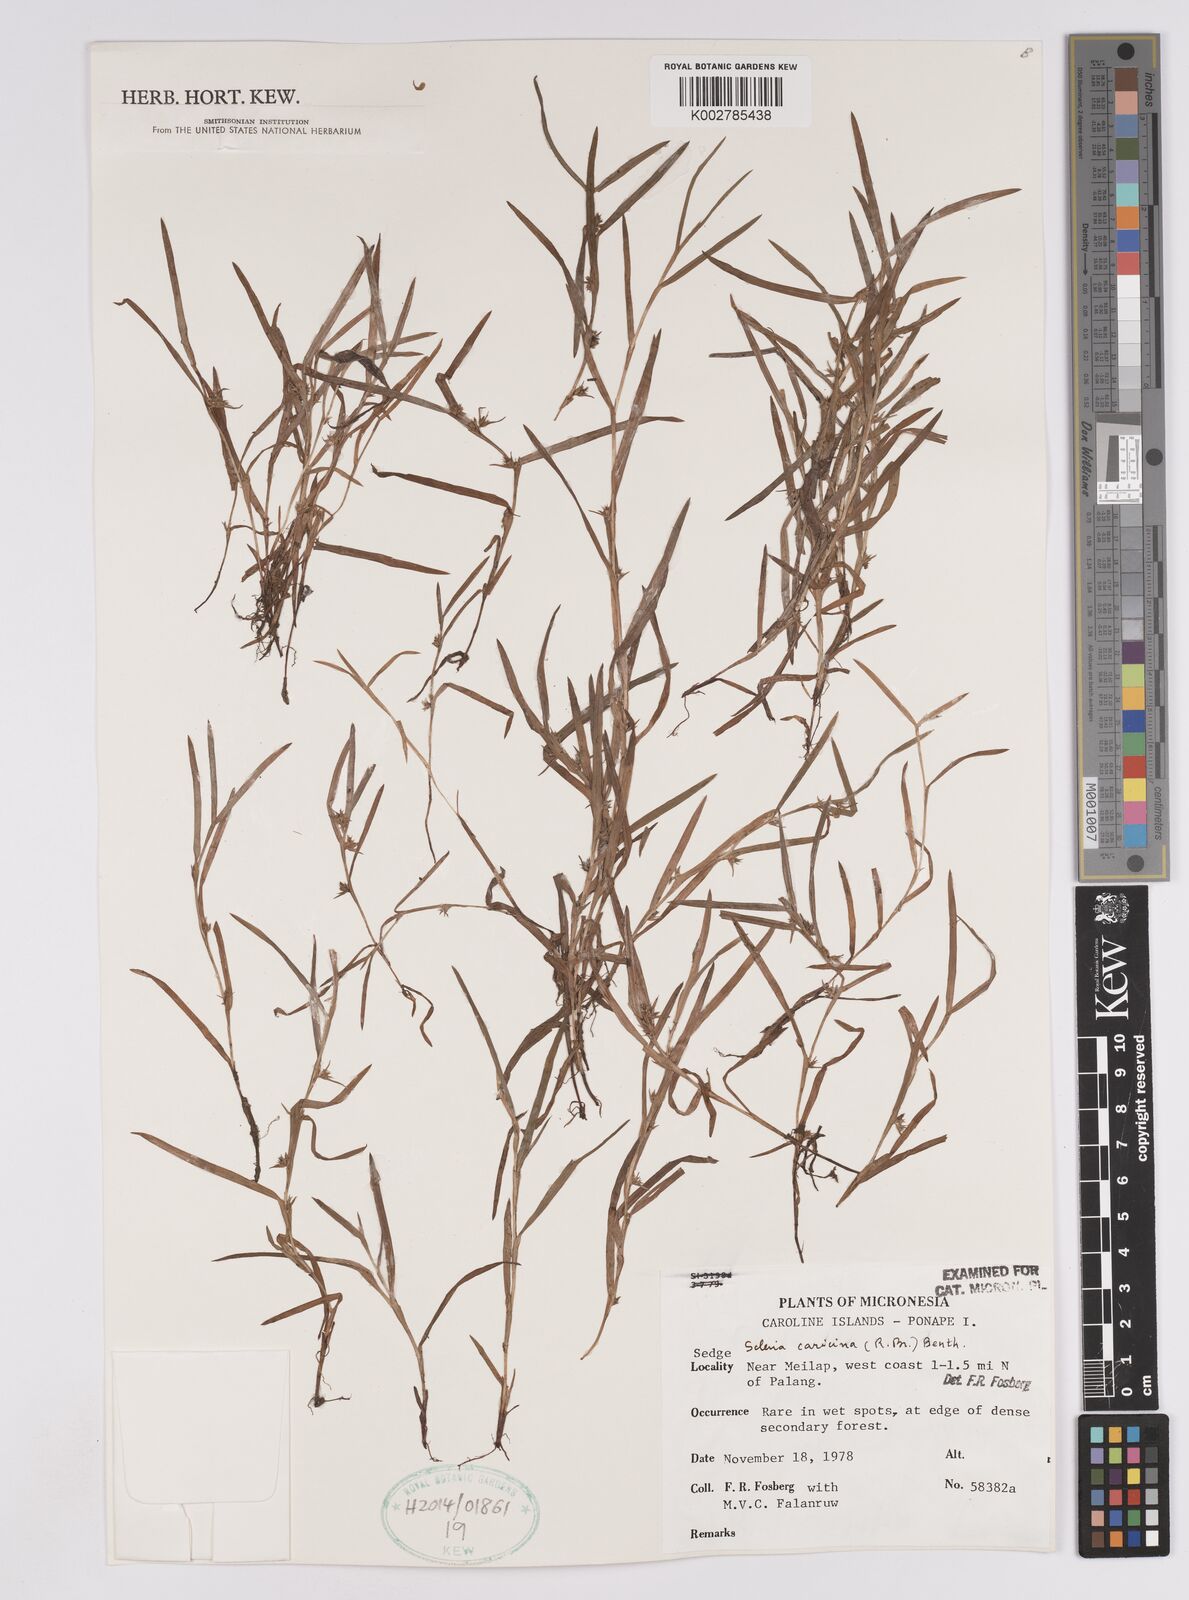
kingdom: Plantae
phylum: Tracheophyta
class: Liliopsida
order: Poales
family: Cyperaceae
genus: Diplacrum
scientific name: Diplacrum caricinum
